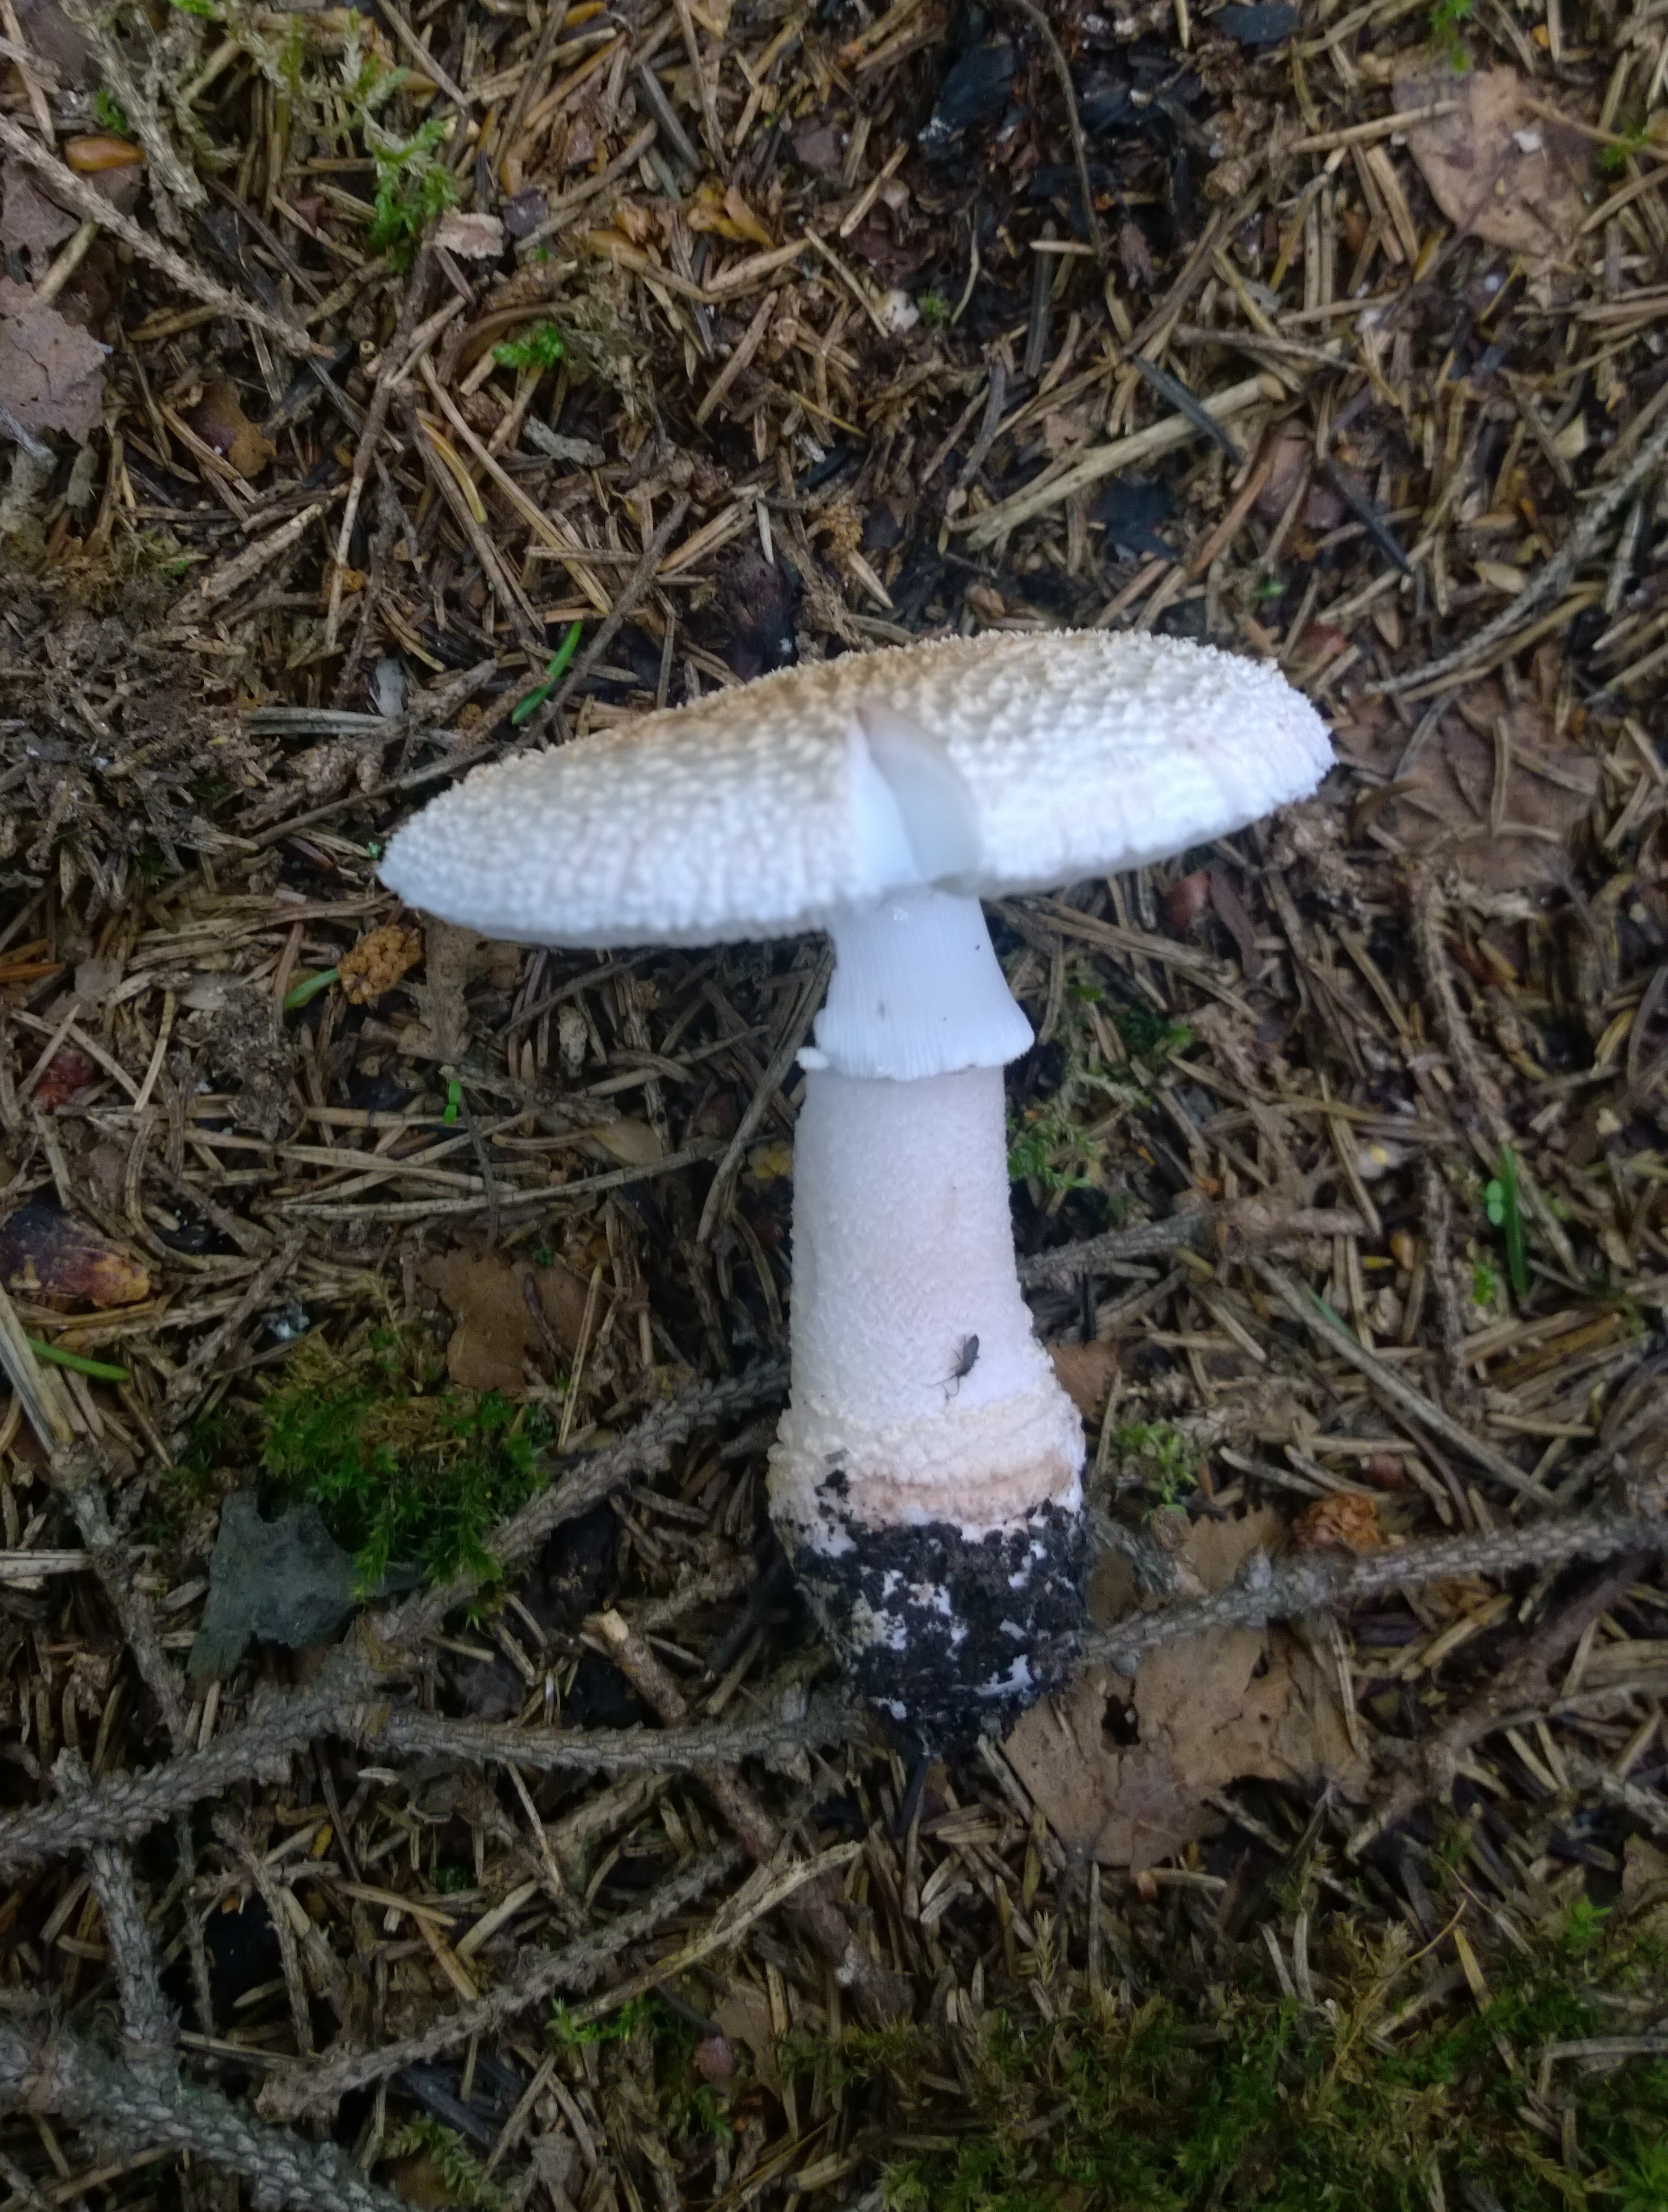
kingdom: Fungi
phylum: Basidiomycota
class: Agaricomycetes
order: Agaricales
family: Amanitaceae
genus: Amanita
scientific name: Amanita rubescens
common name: Blusher
